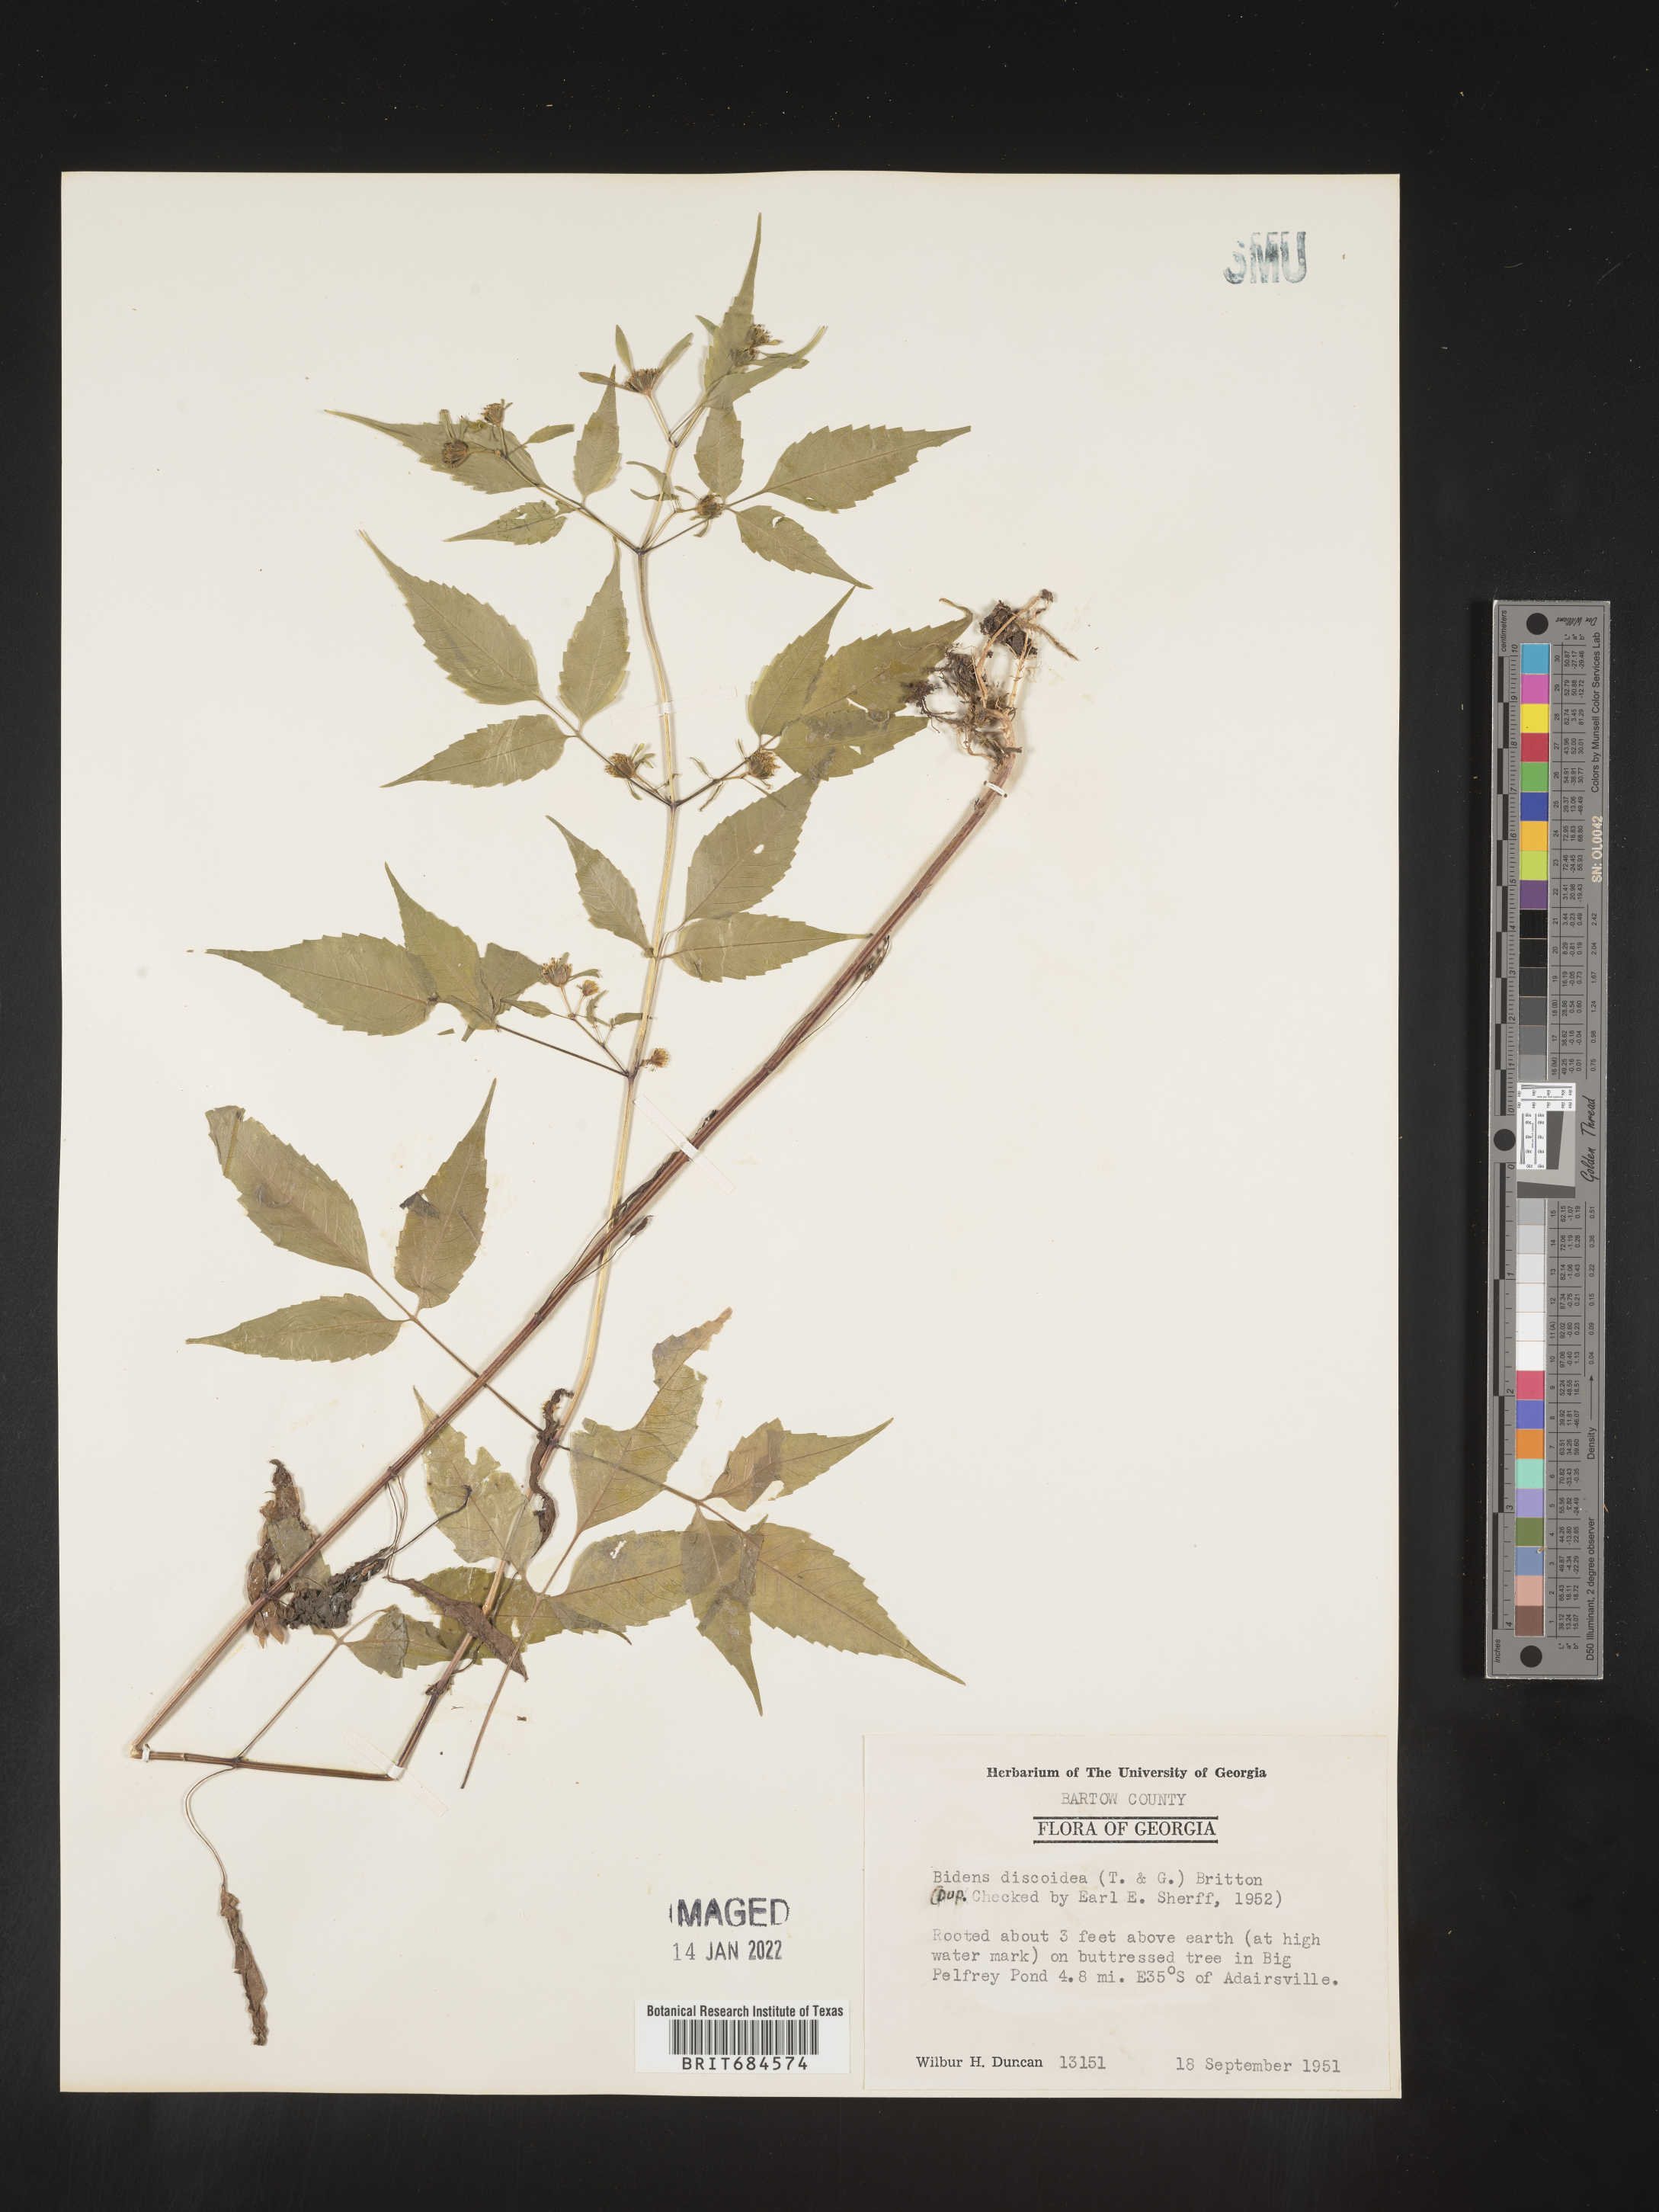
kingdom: Plantae
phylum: Tracheophyta
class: Magnoliopsida
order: Asterales
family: Asteraceae
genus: Bidens
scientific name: Bidens discoidea
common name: Discoide beggarticks
